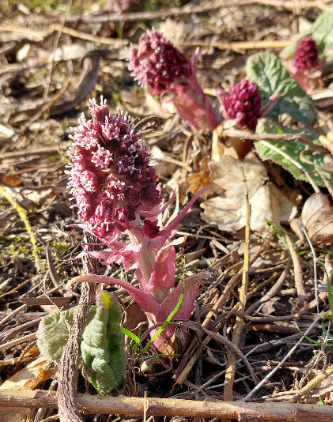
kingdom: Plantae
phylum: Tracheophyta
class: Magnoliopsida
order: Asterales
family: Asteraceae
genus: Petasites
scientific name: Petasites hybridus
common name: Rød hestehov
